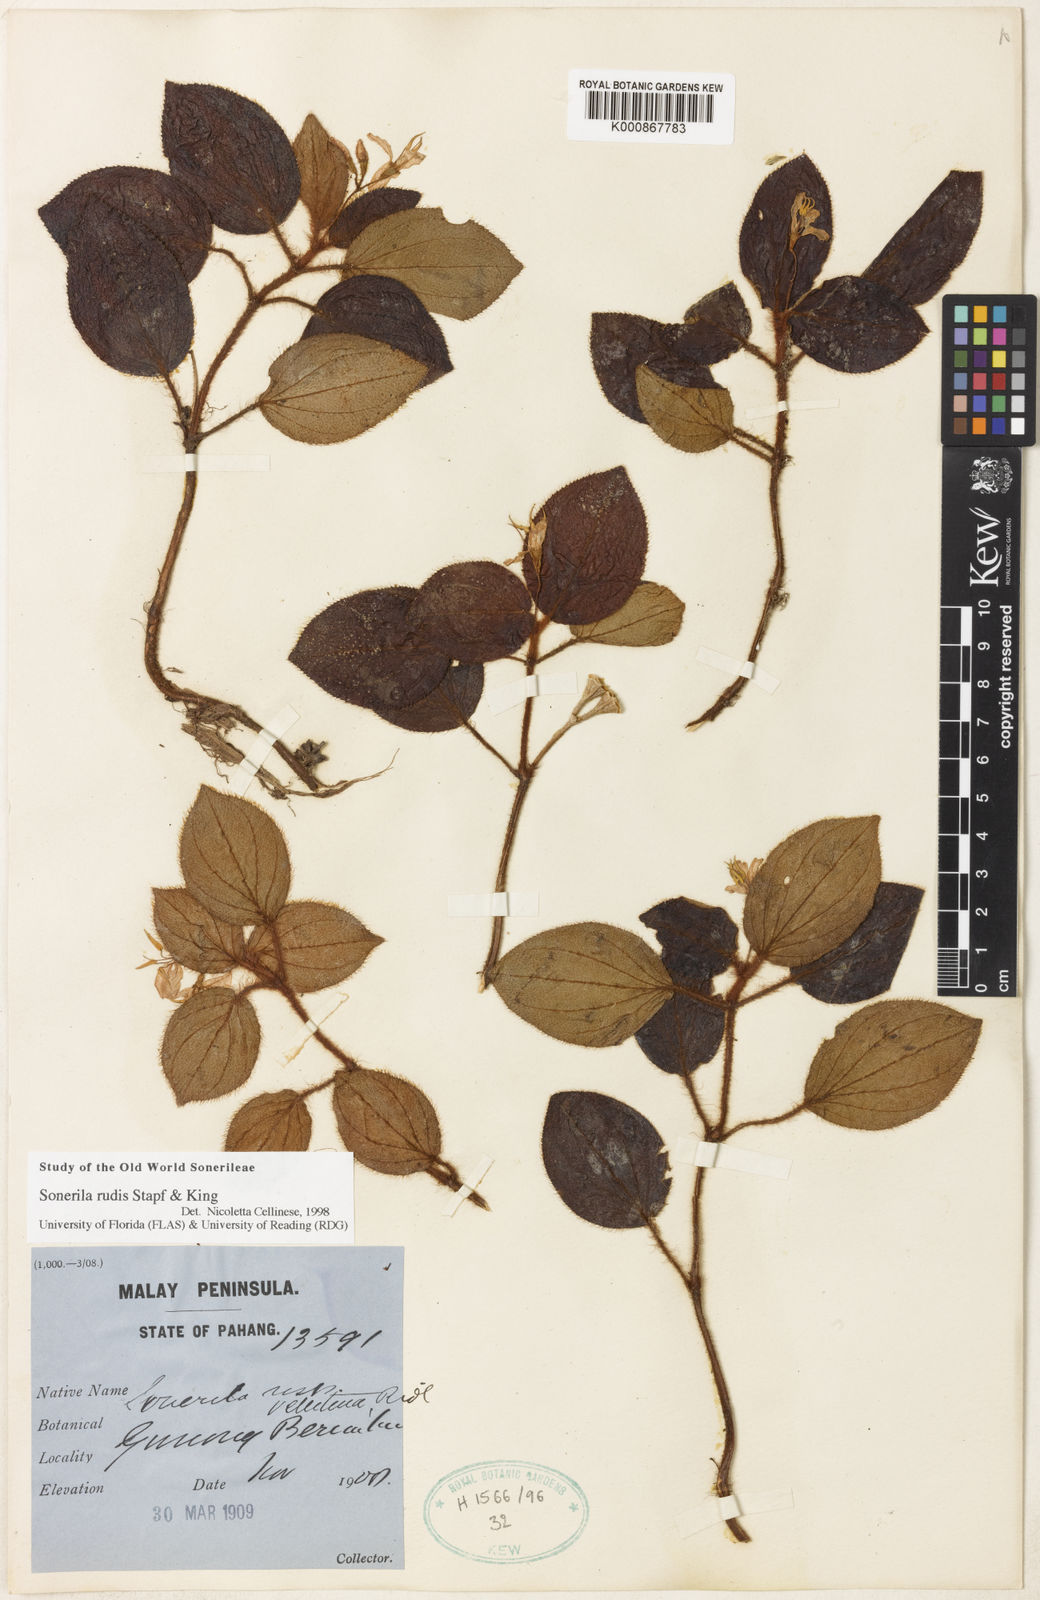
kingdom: Plantae
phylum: Tracheophyta
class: Magnoliopsida
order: Myrtales
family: Melastomataceae
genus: Sonerila
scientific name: Sonerila rudis
